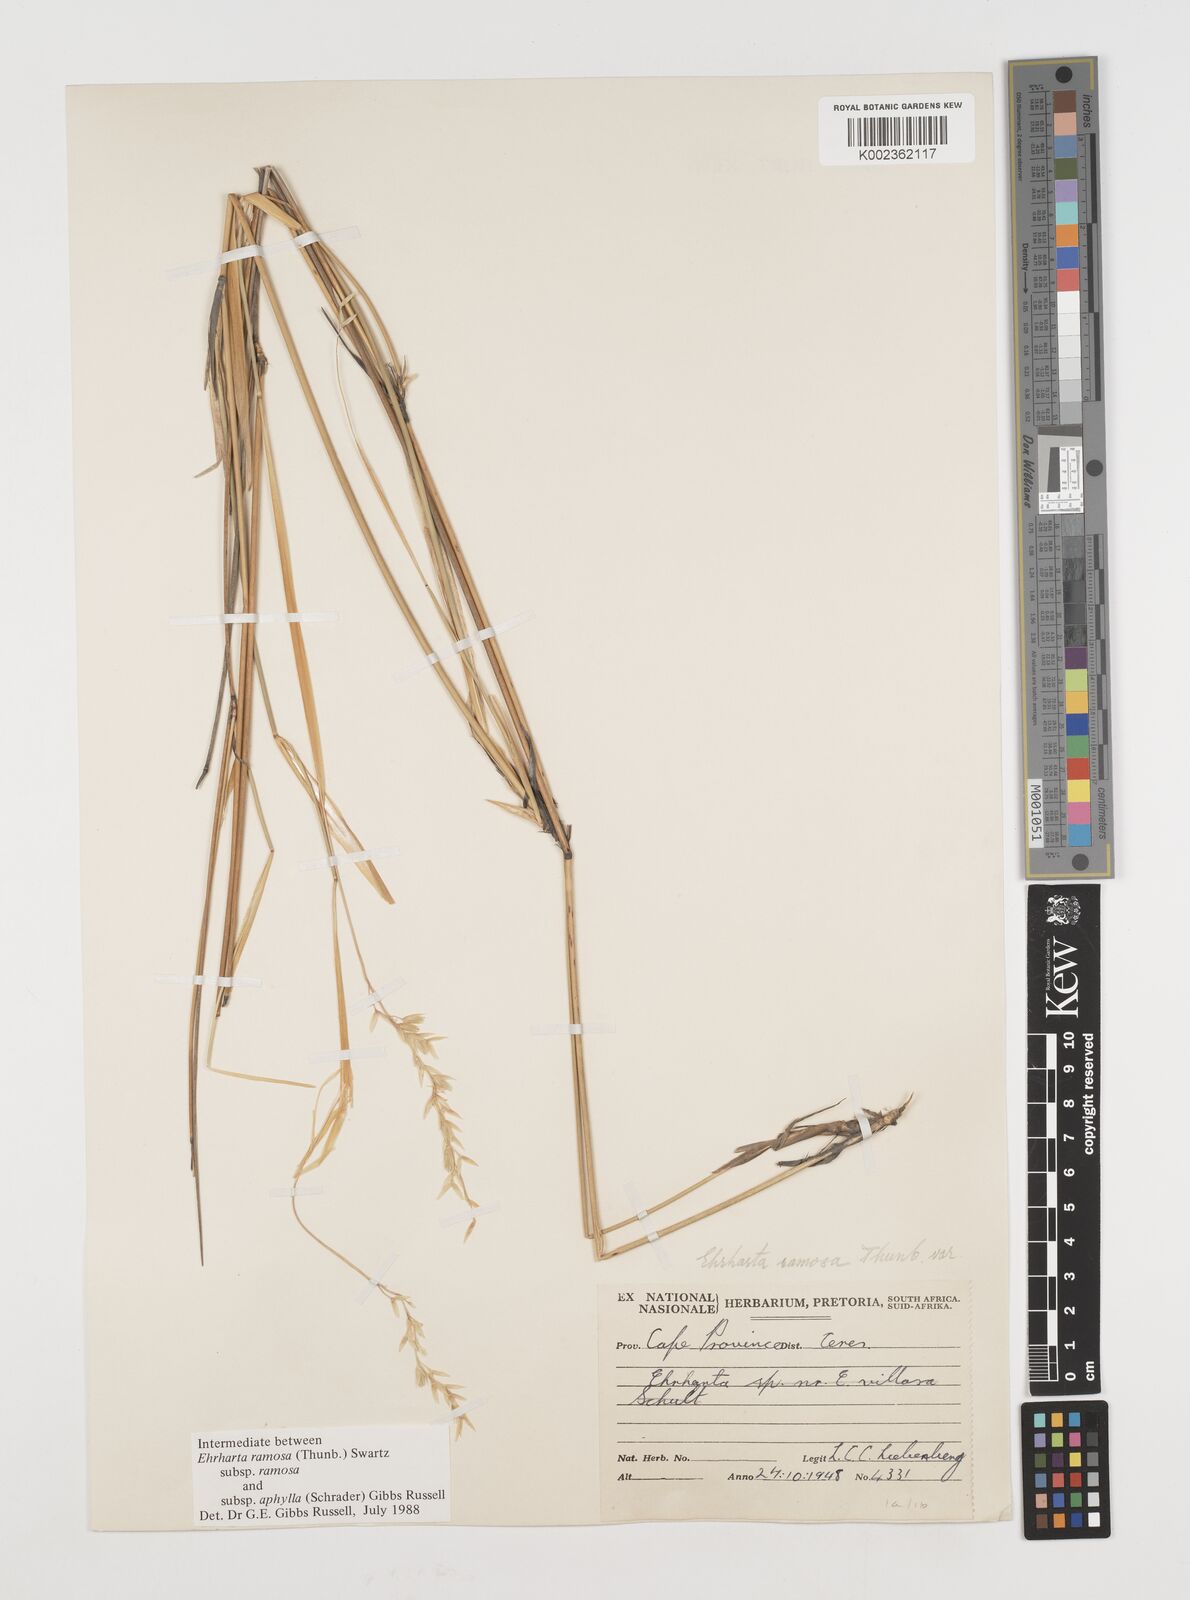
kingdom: Plantae
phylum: Tracheophyta
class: Liliopsida
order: Poales
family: Poaceae
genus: Ehrharta
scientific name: Ehrharta digyna
